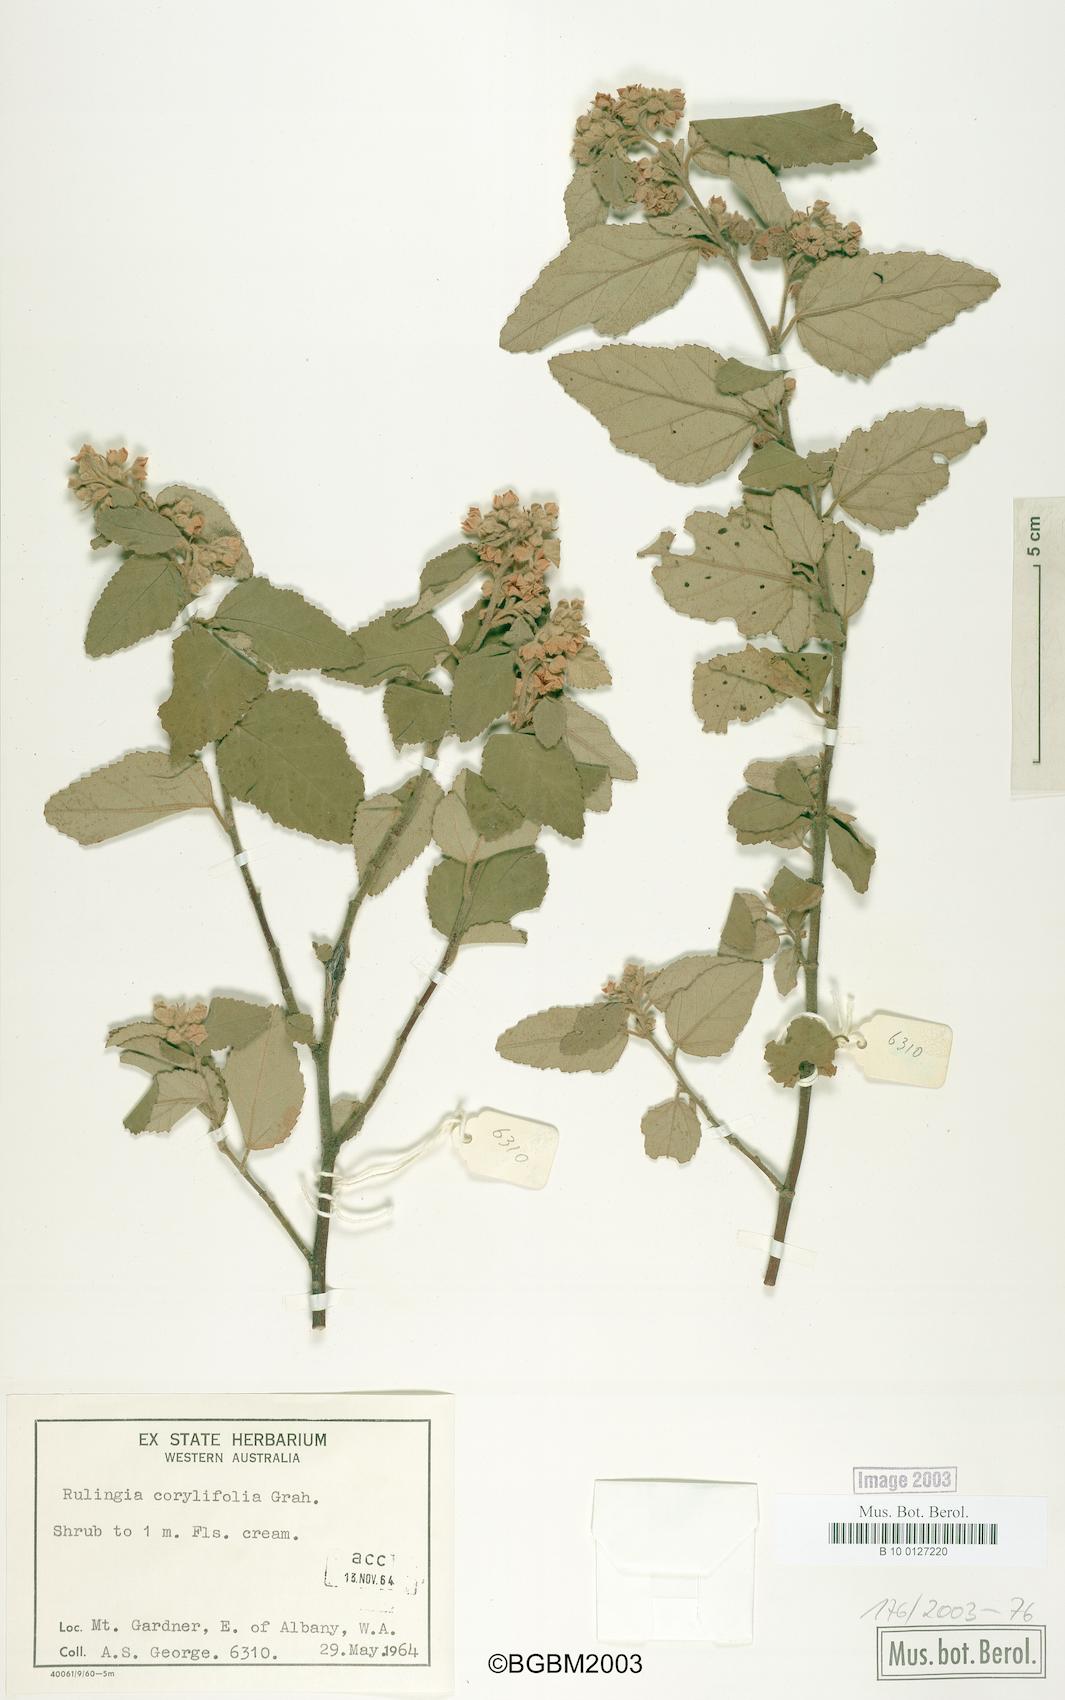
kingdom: Plantae
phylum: Tracheophyta
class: Magnoliopsida
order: Malvales
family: Malvaceae
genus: Commersonia
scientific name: Commersonia corylifolia
